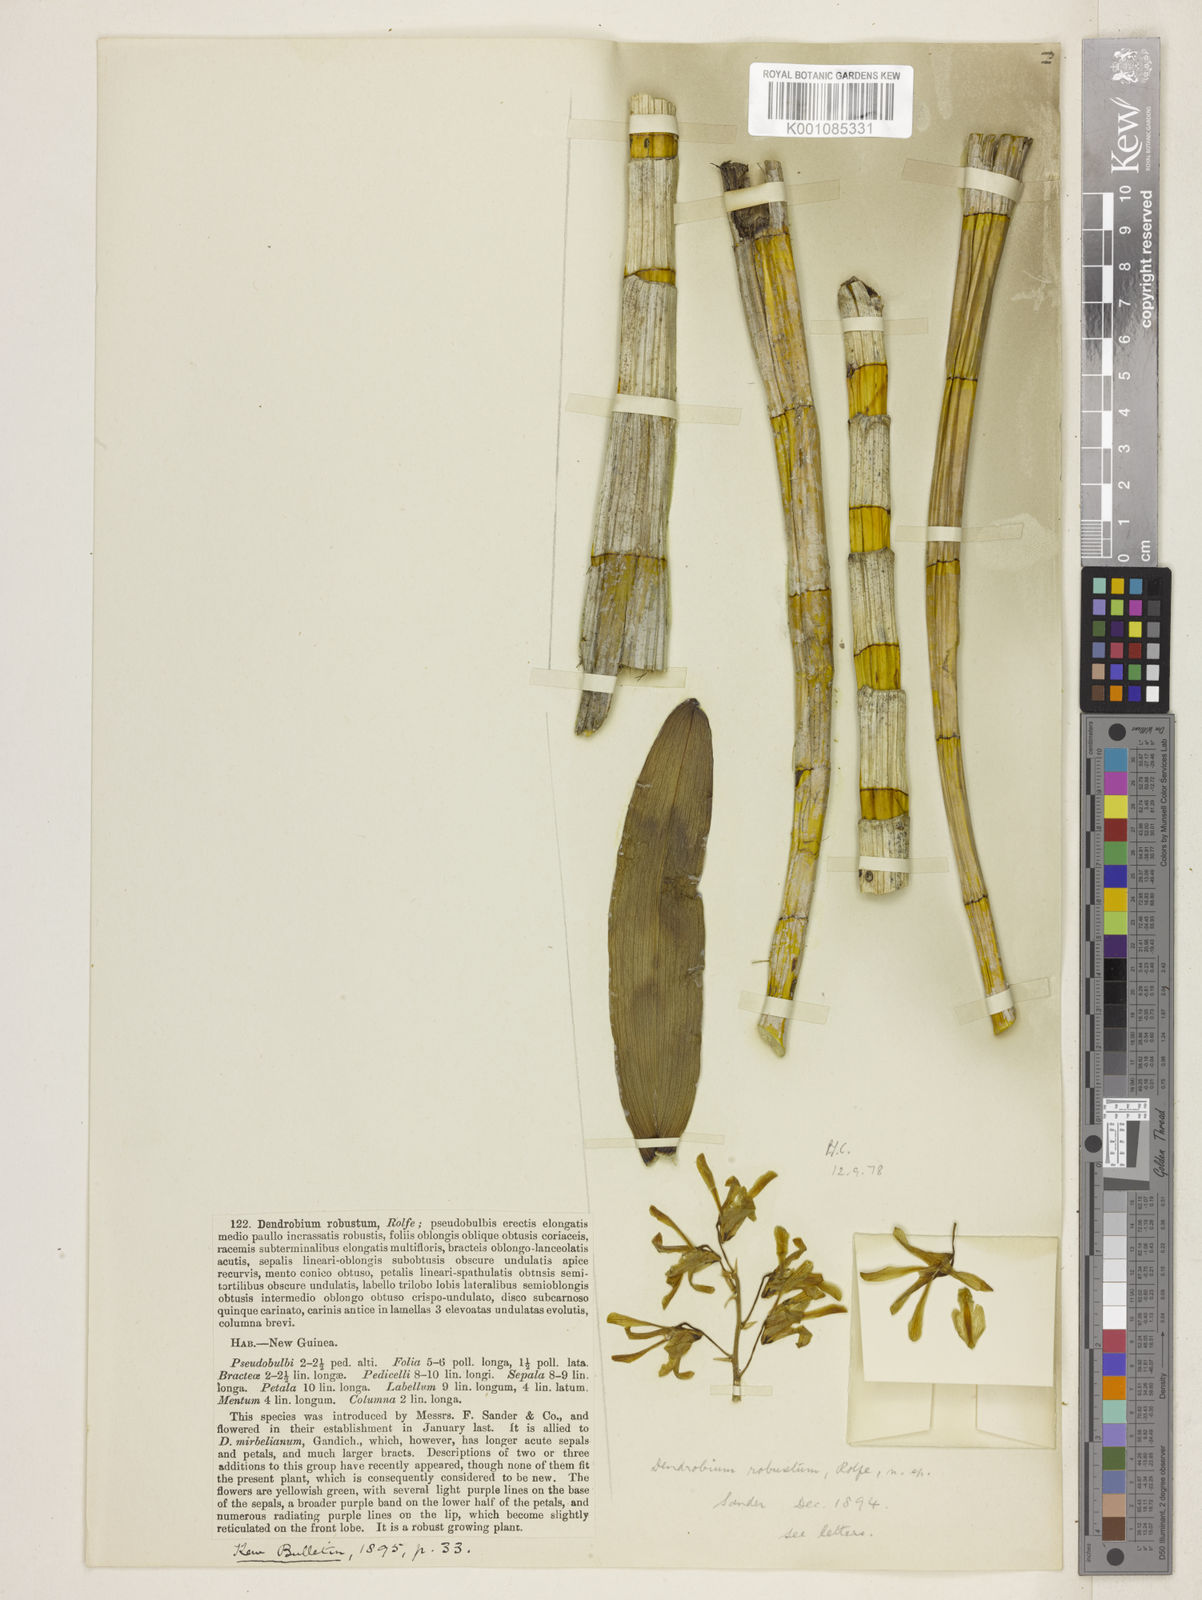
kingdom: Plantae
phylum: Tracheophyta
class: Liliopsida
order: Asparagales
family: Orchidaceae
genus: Dendrobium
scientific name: Dendrobium sylvanum
